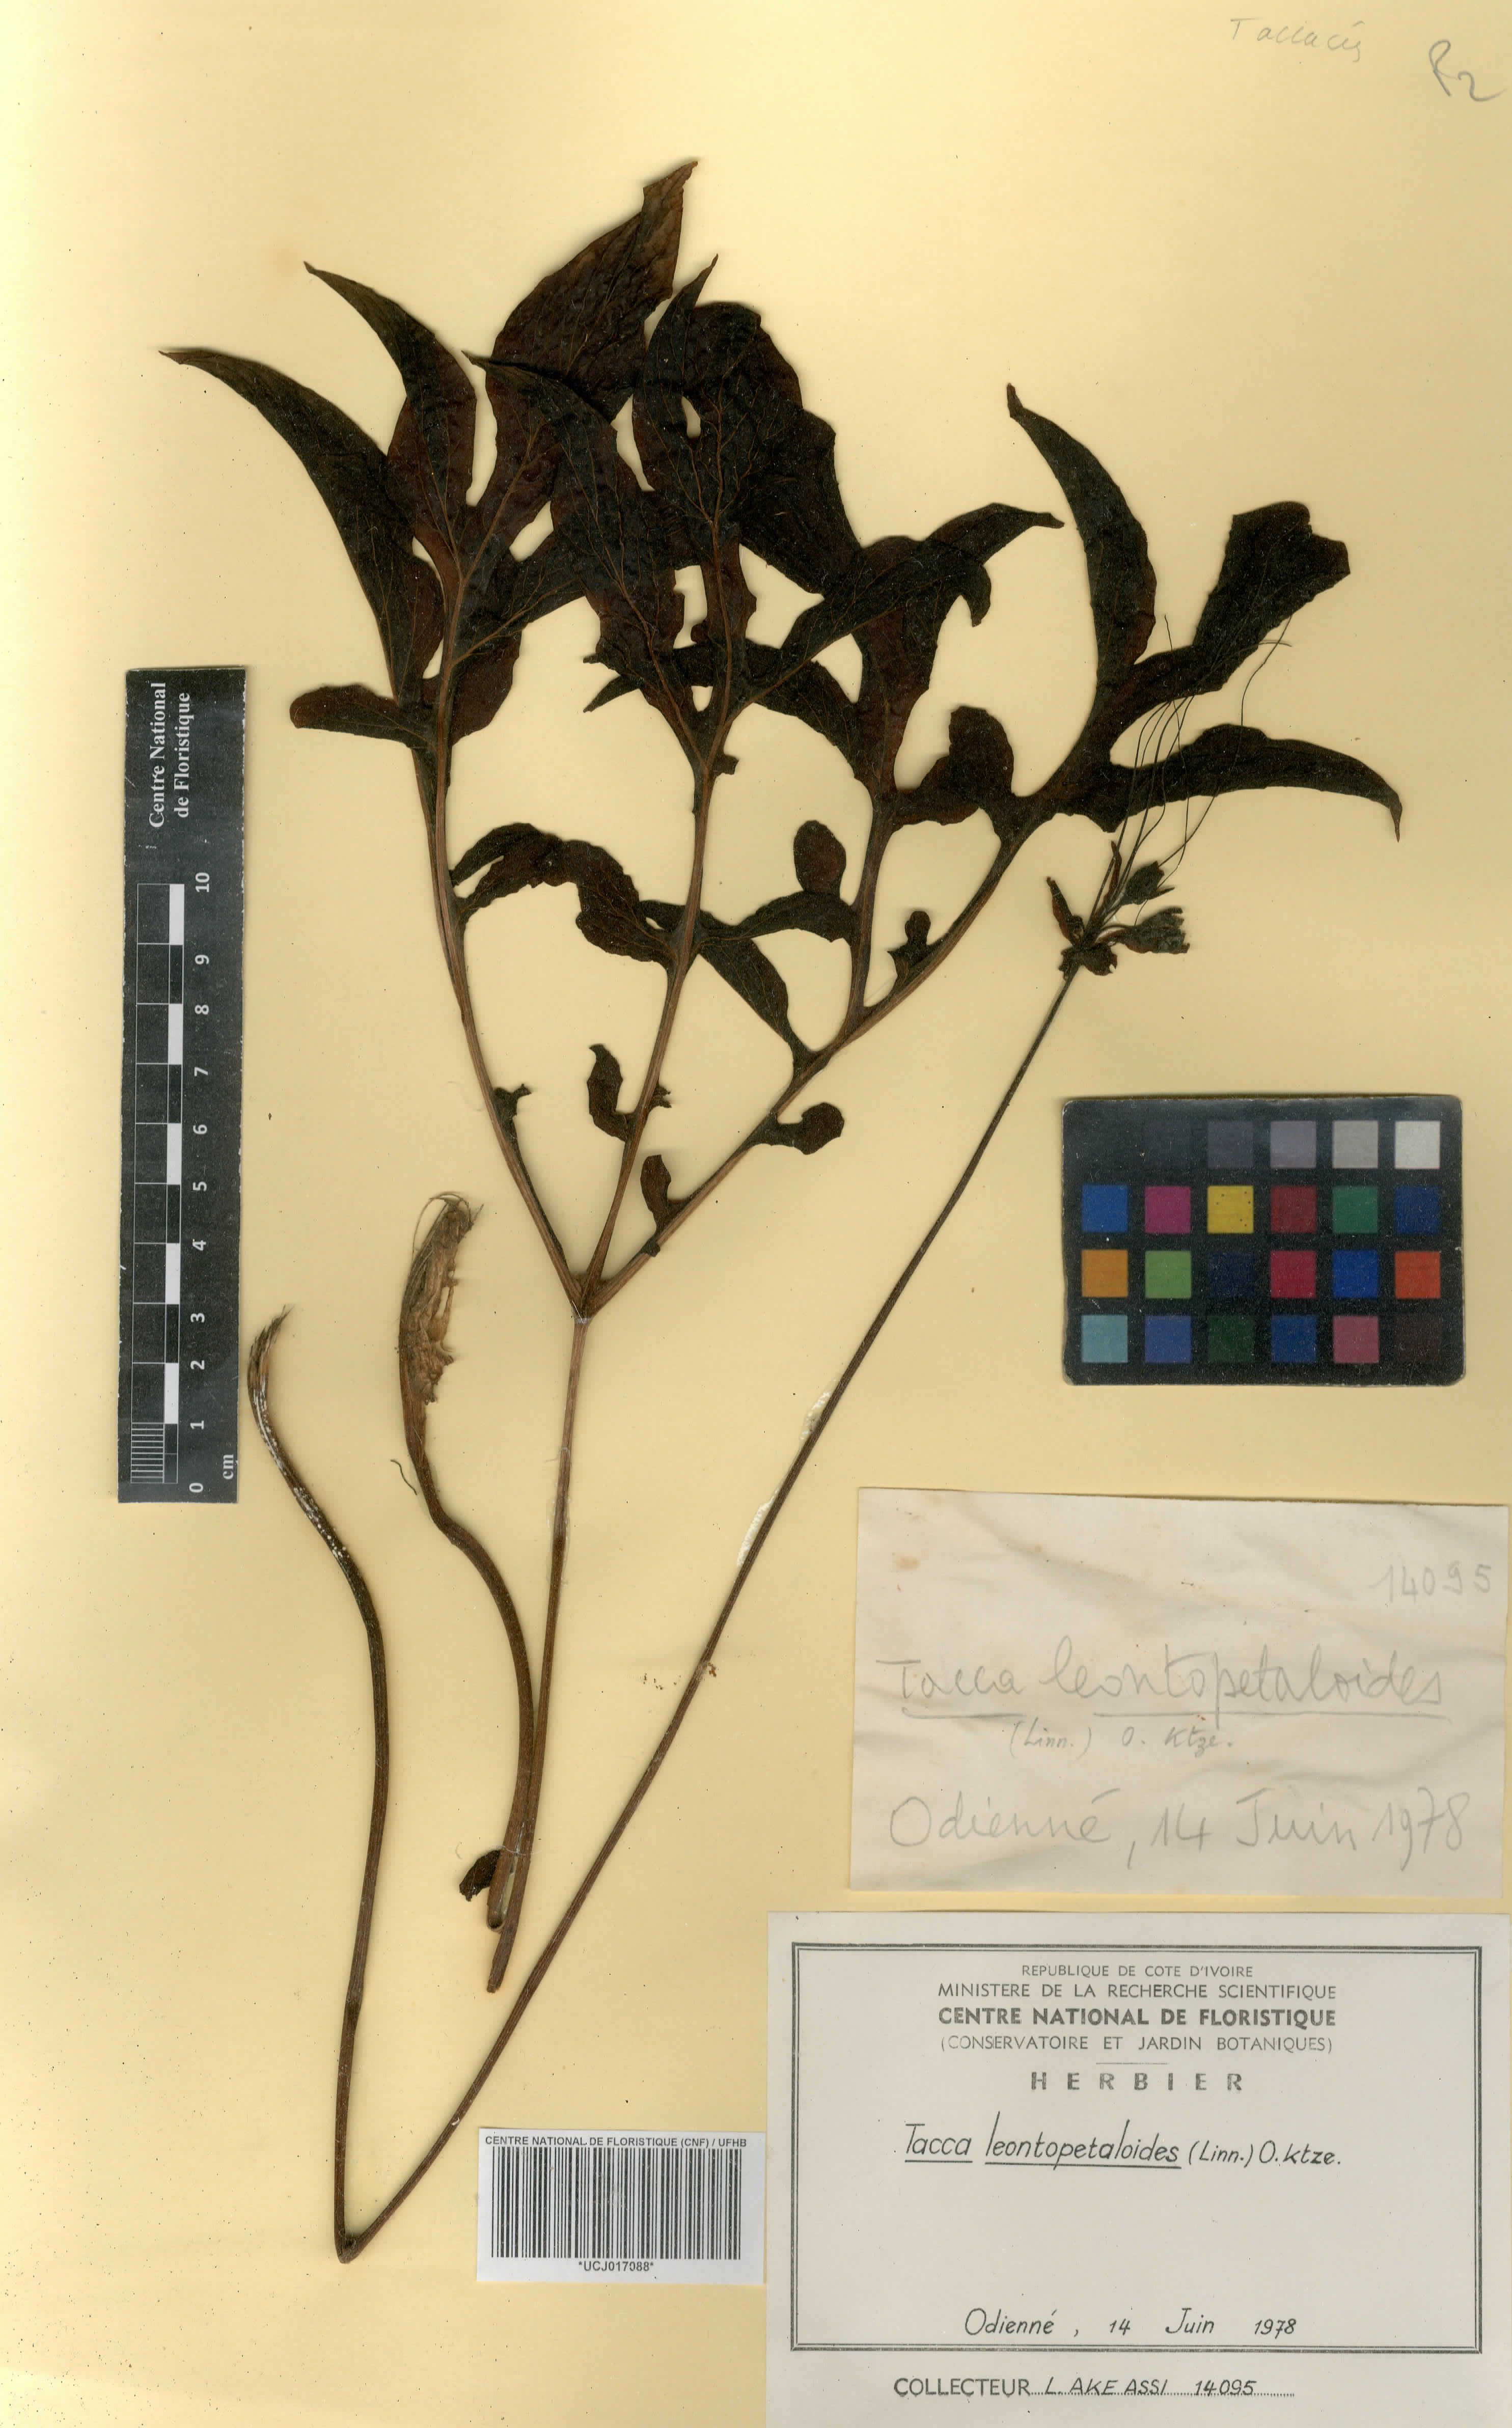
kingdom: Plantae
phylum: Tracheophyta
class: Liliopsida
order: Dioscoreales
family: Dioscoreaceae
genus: Tacca
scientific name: Tacca leontopetaloides
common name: Arrowroot
